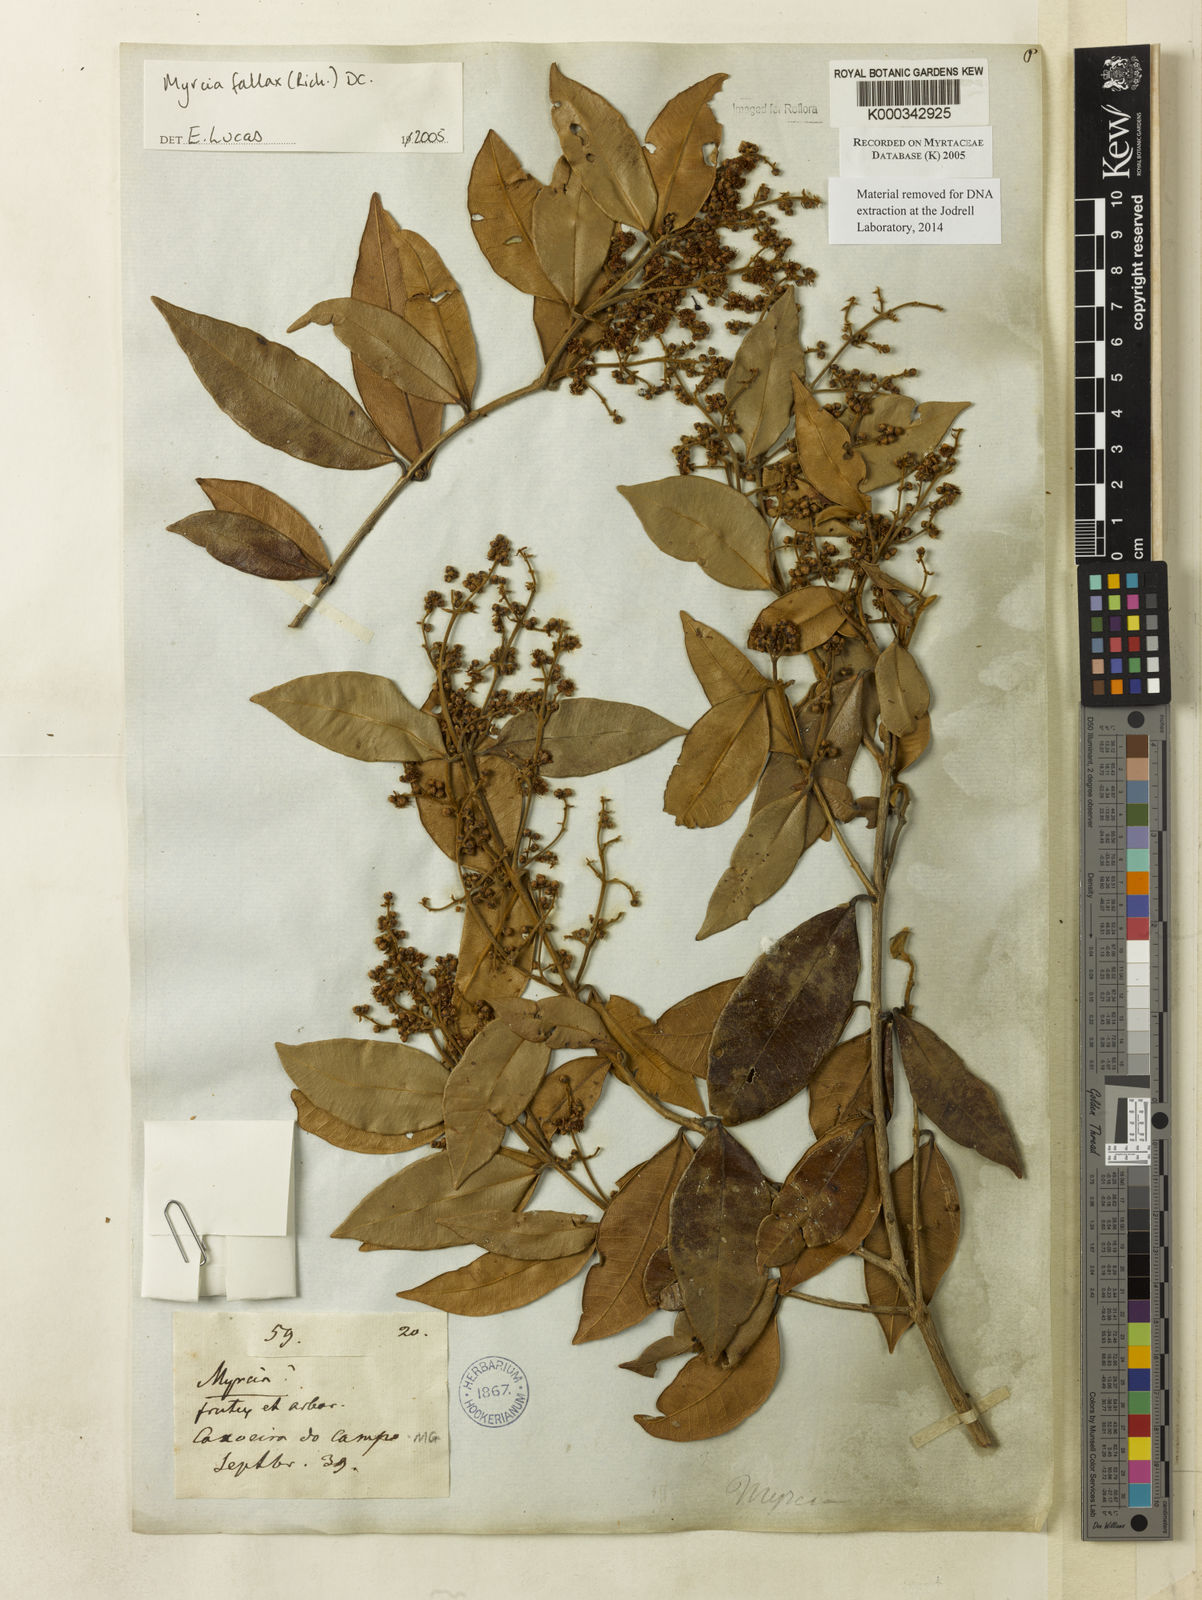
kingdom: Plantae
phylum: Tracheophyta
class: Magnoliopsida
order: Myrtales
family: Myrtaceae
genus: Myrcia
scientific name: Myrcia splendens
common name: Surinam cherry
